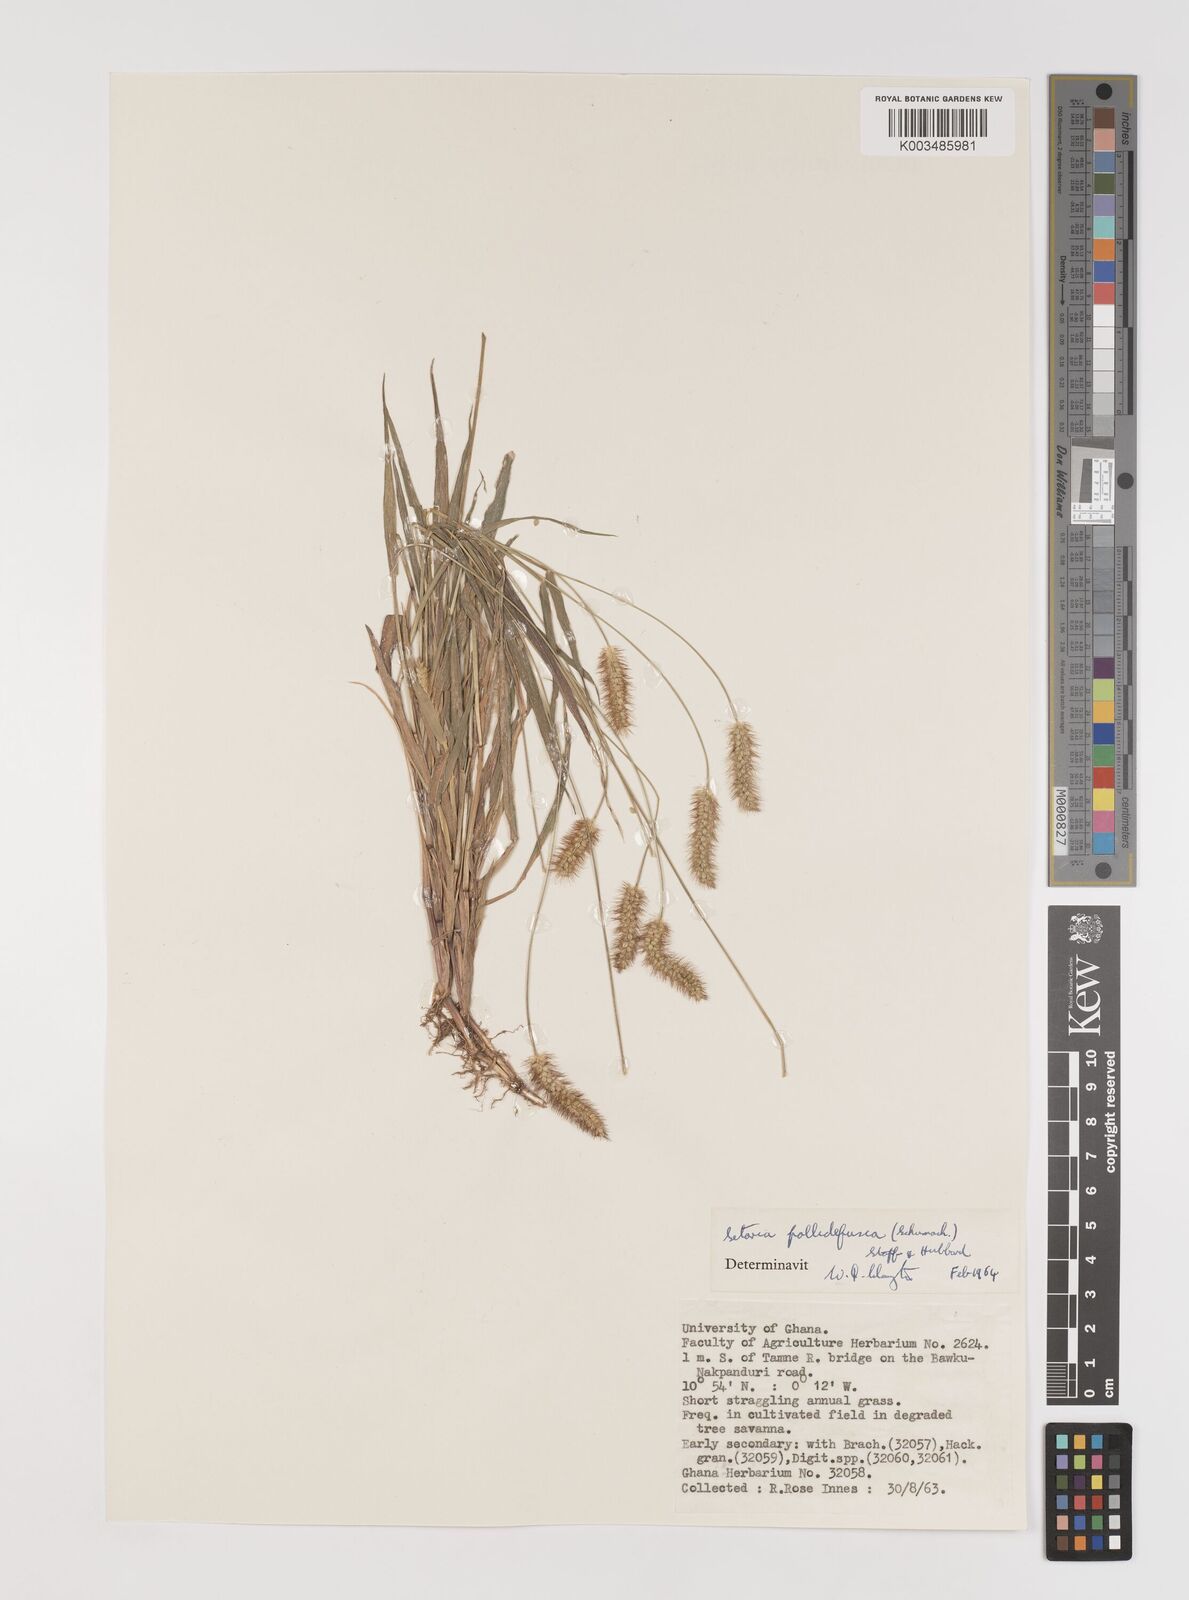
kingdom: Plantae
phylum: Tracheophyta
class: Liliopsida
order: Poales
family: Poaceae
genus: Setaria
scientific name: Setaria pumila
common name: Yellow bristle-grass
